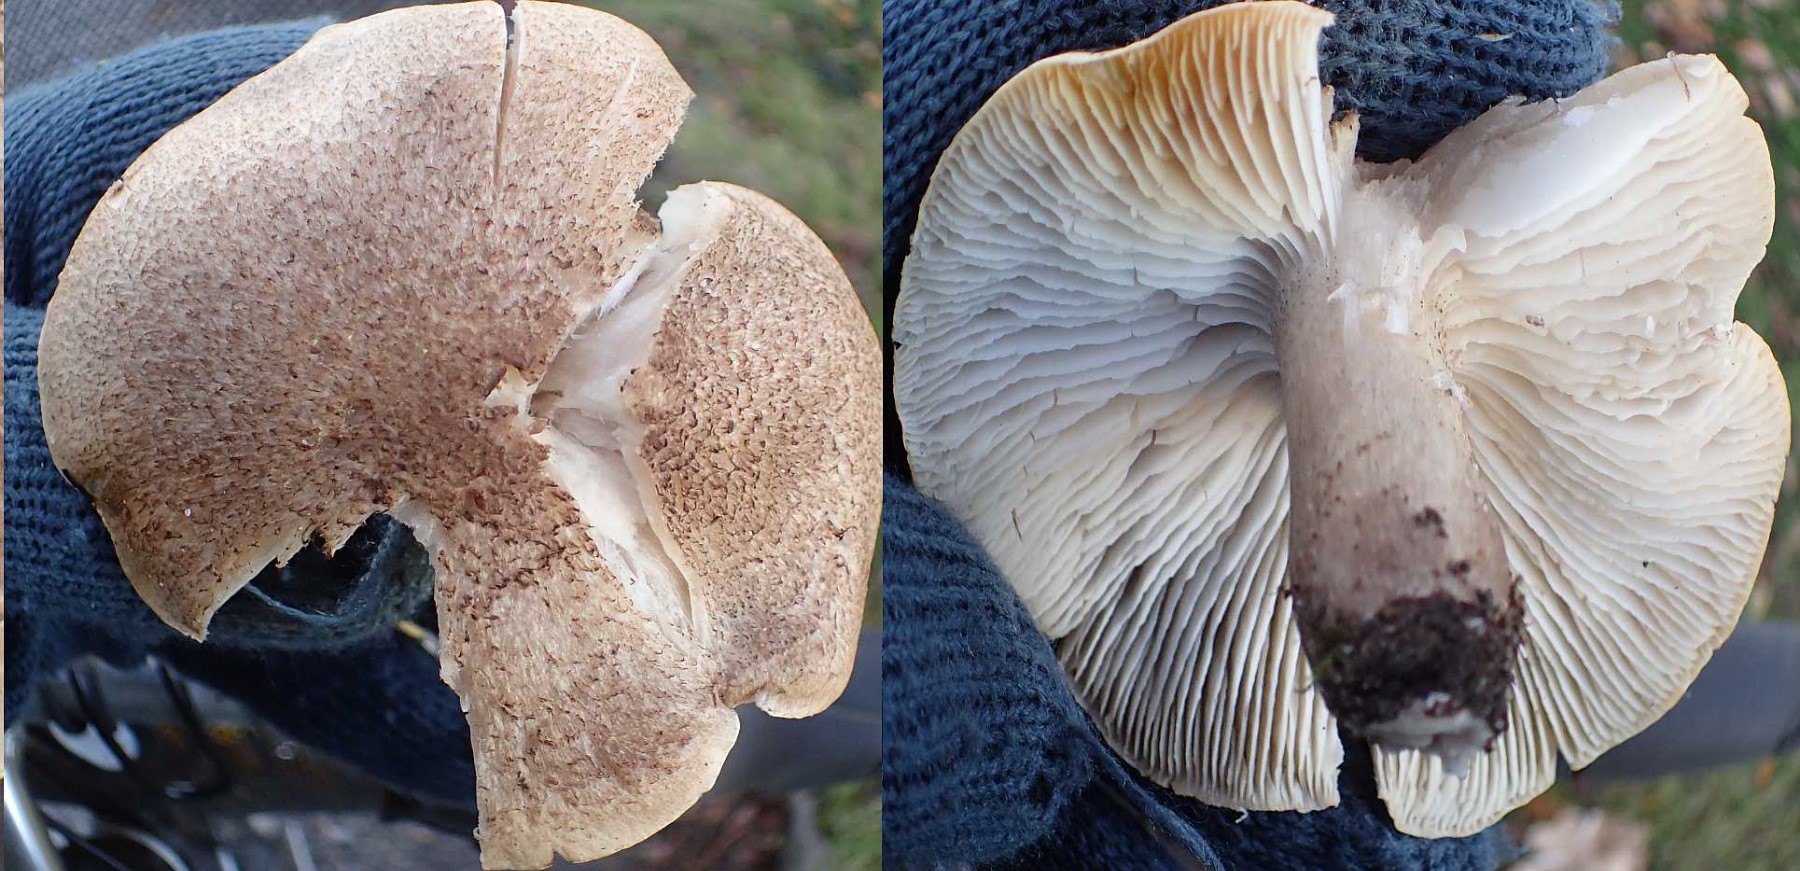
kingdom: Fungi
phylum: Basidiomycota
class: Agaricomycetes
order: Agaricales
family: Tricholomataceae
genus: Tricholoma
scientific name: Tricholoma scalpturatum
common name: gulplettet ridderhat
